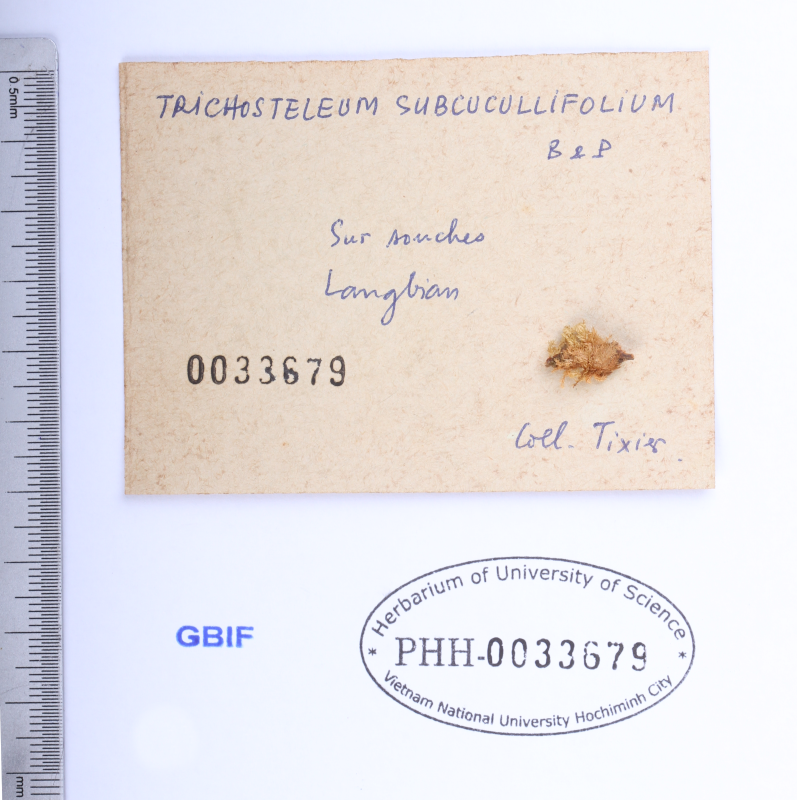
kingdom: Plantae
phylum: Bryophyta
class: Bryopsida
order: Hypnales
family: Sematophyllaceae
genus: Trichosteleum
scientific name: Trichosteleum subcucullifolium
